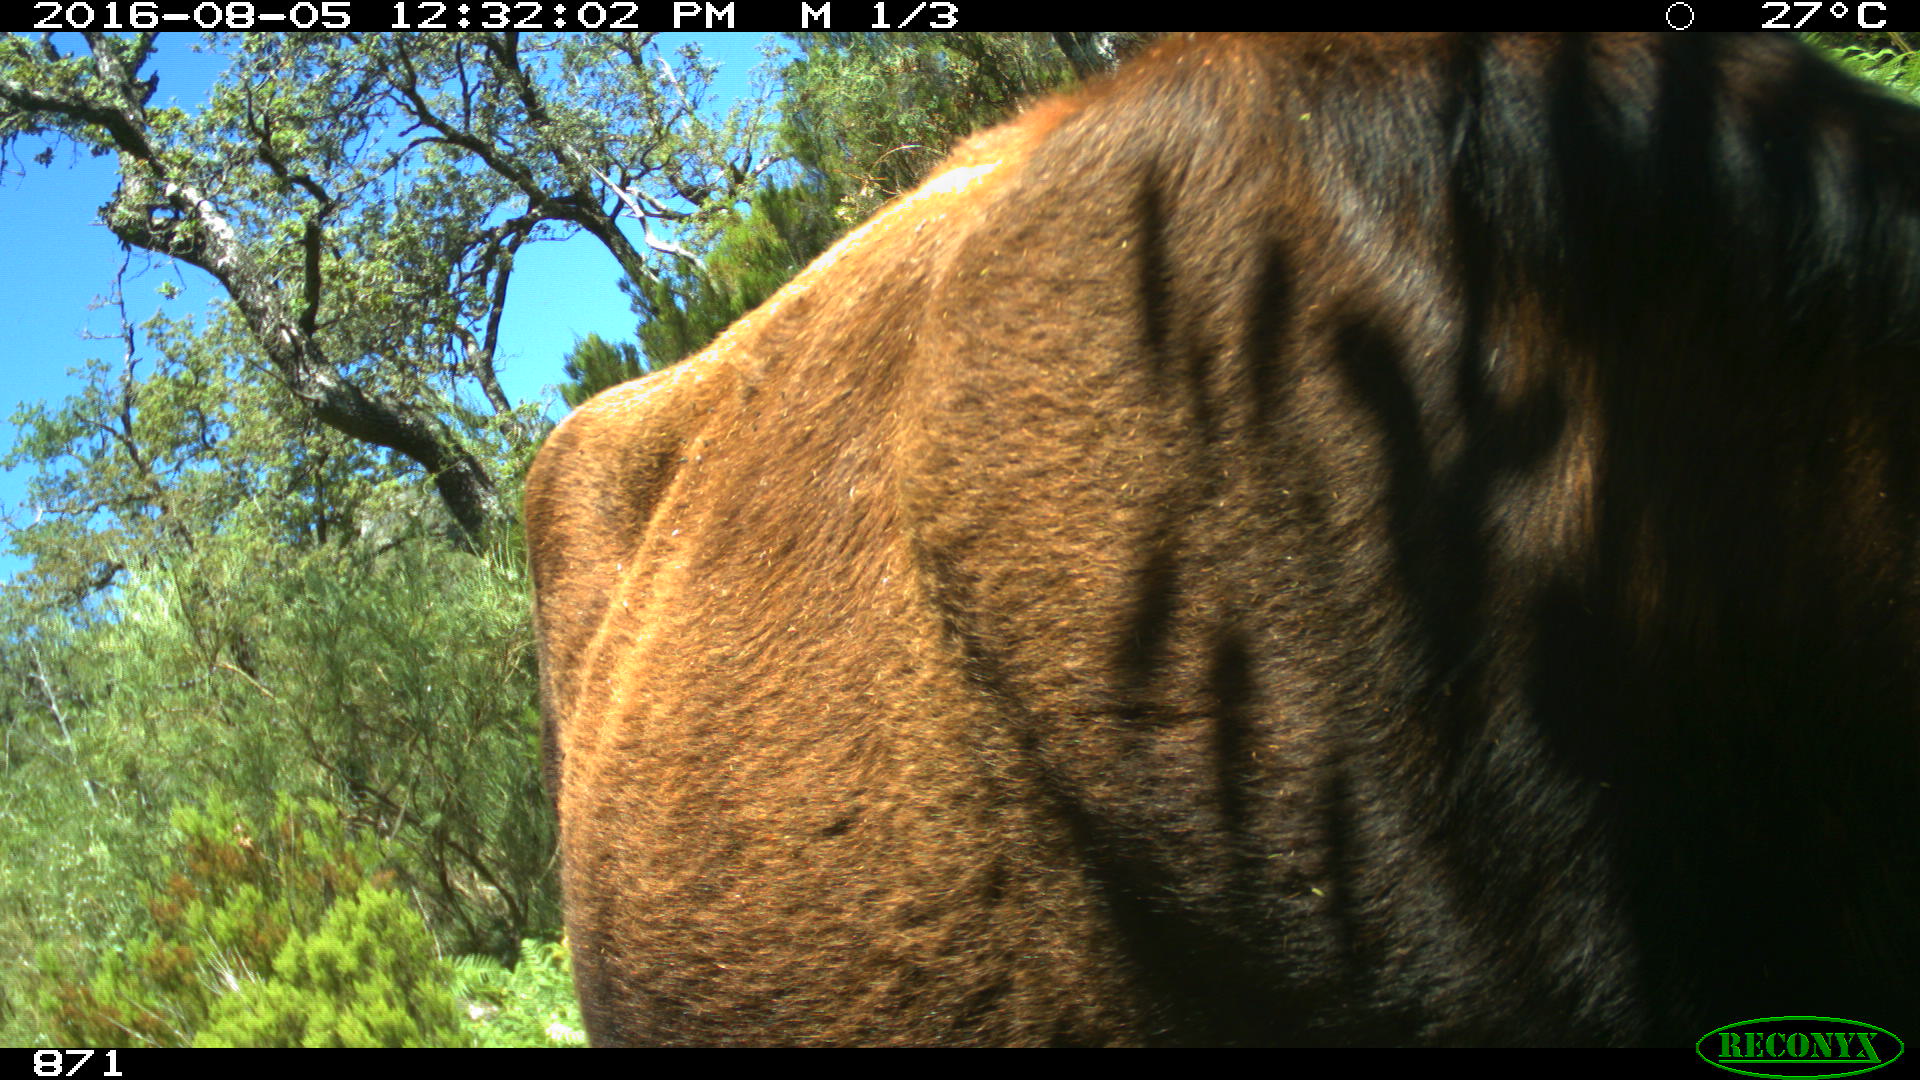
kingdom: Animalia
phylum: Chordata
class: Mammalia
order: Artiodactyla
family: Bovidae
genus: Bos
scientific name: Bos taurus
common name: Domesticated cattle
